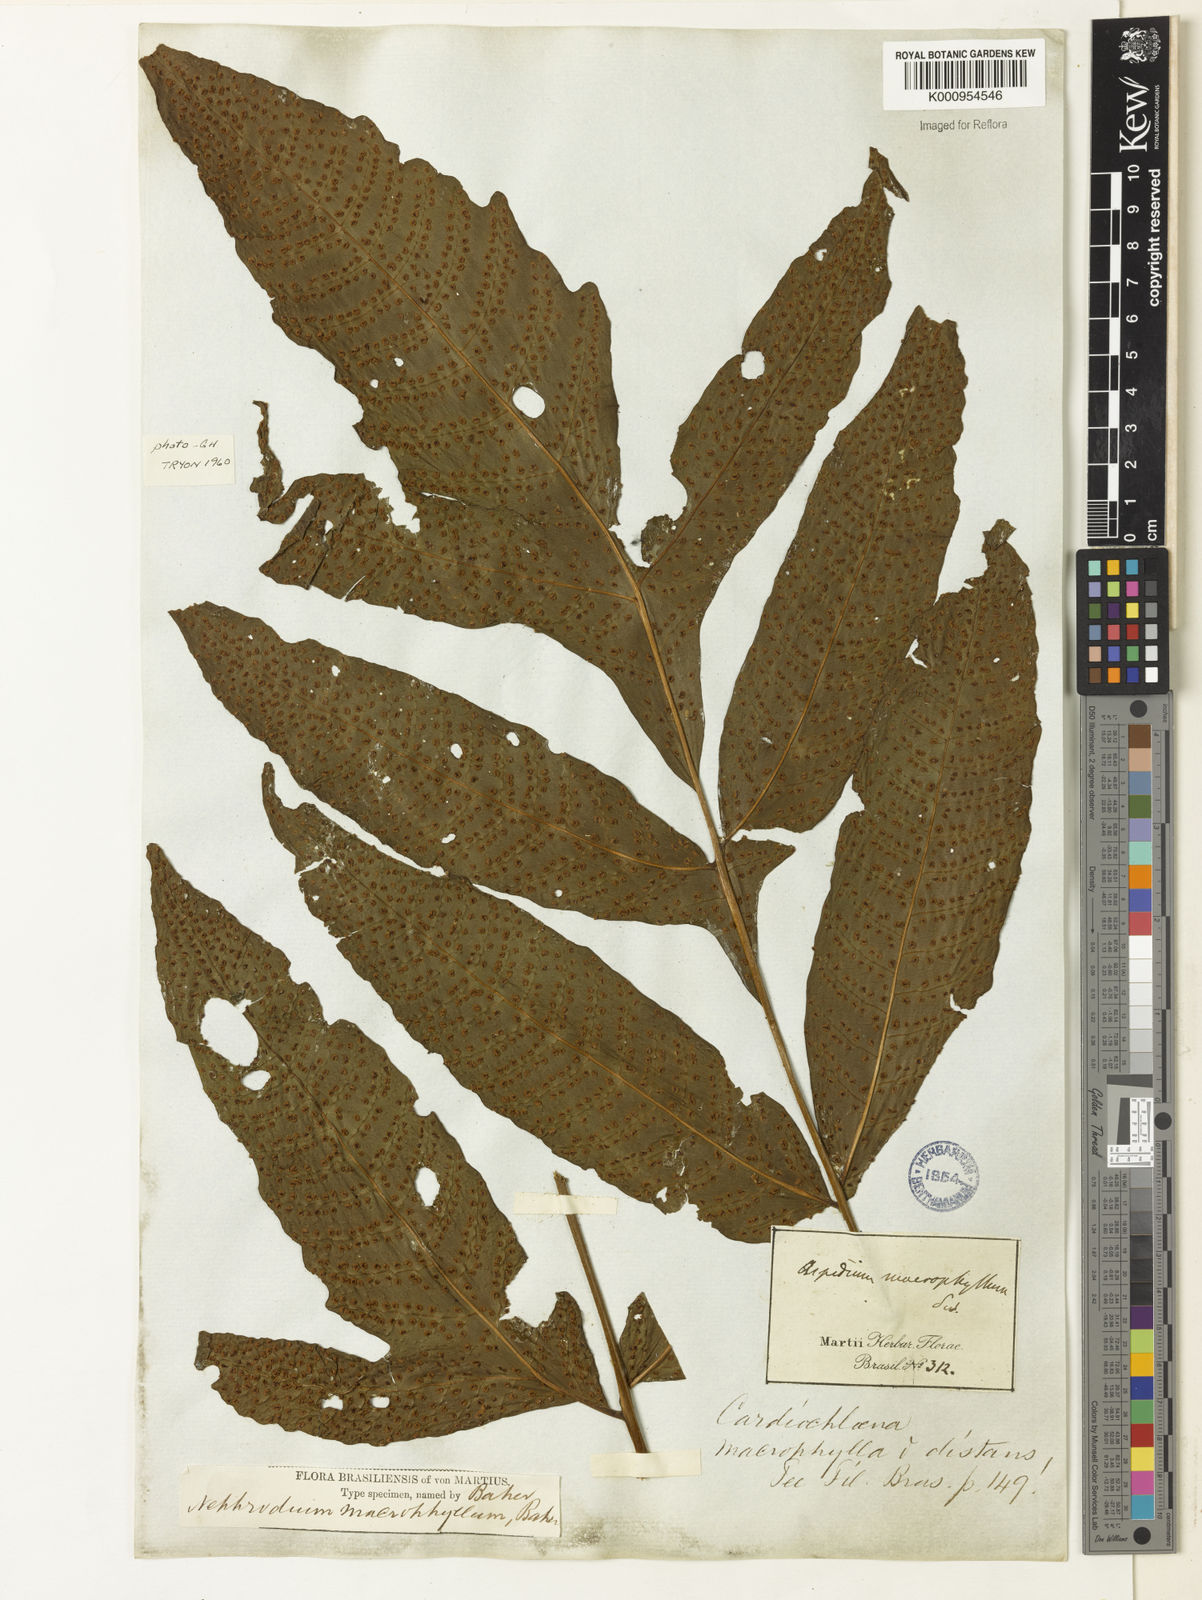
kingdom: Plantae
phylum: Tracheophyta
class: Polypodiopsida
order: Polypodiales
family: Tectariaceae
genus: Tectaria
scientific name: Tectaria antioquiana
